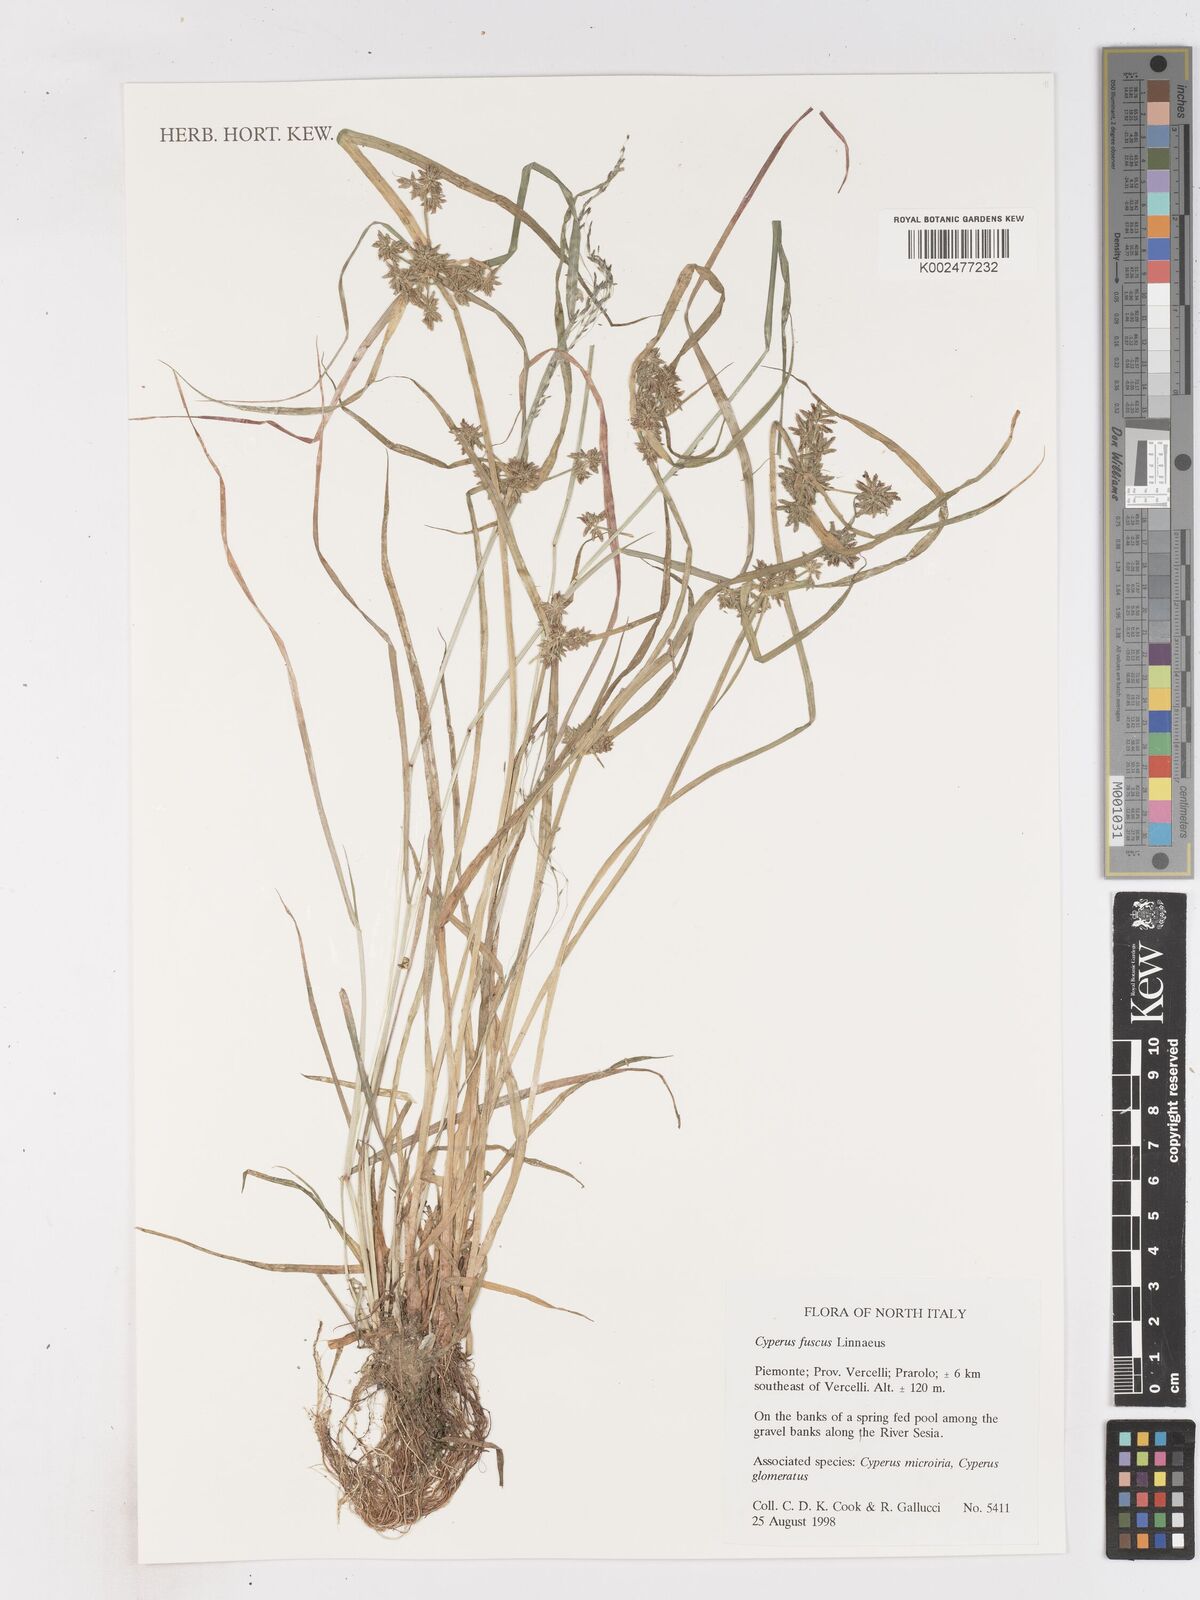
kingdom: Plantae
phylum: Tracheophyta
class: Liliopsida
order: Poales
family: Cyperaceae
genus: Cyperus
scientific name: Cyperus fuscus
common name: Brown galingale
